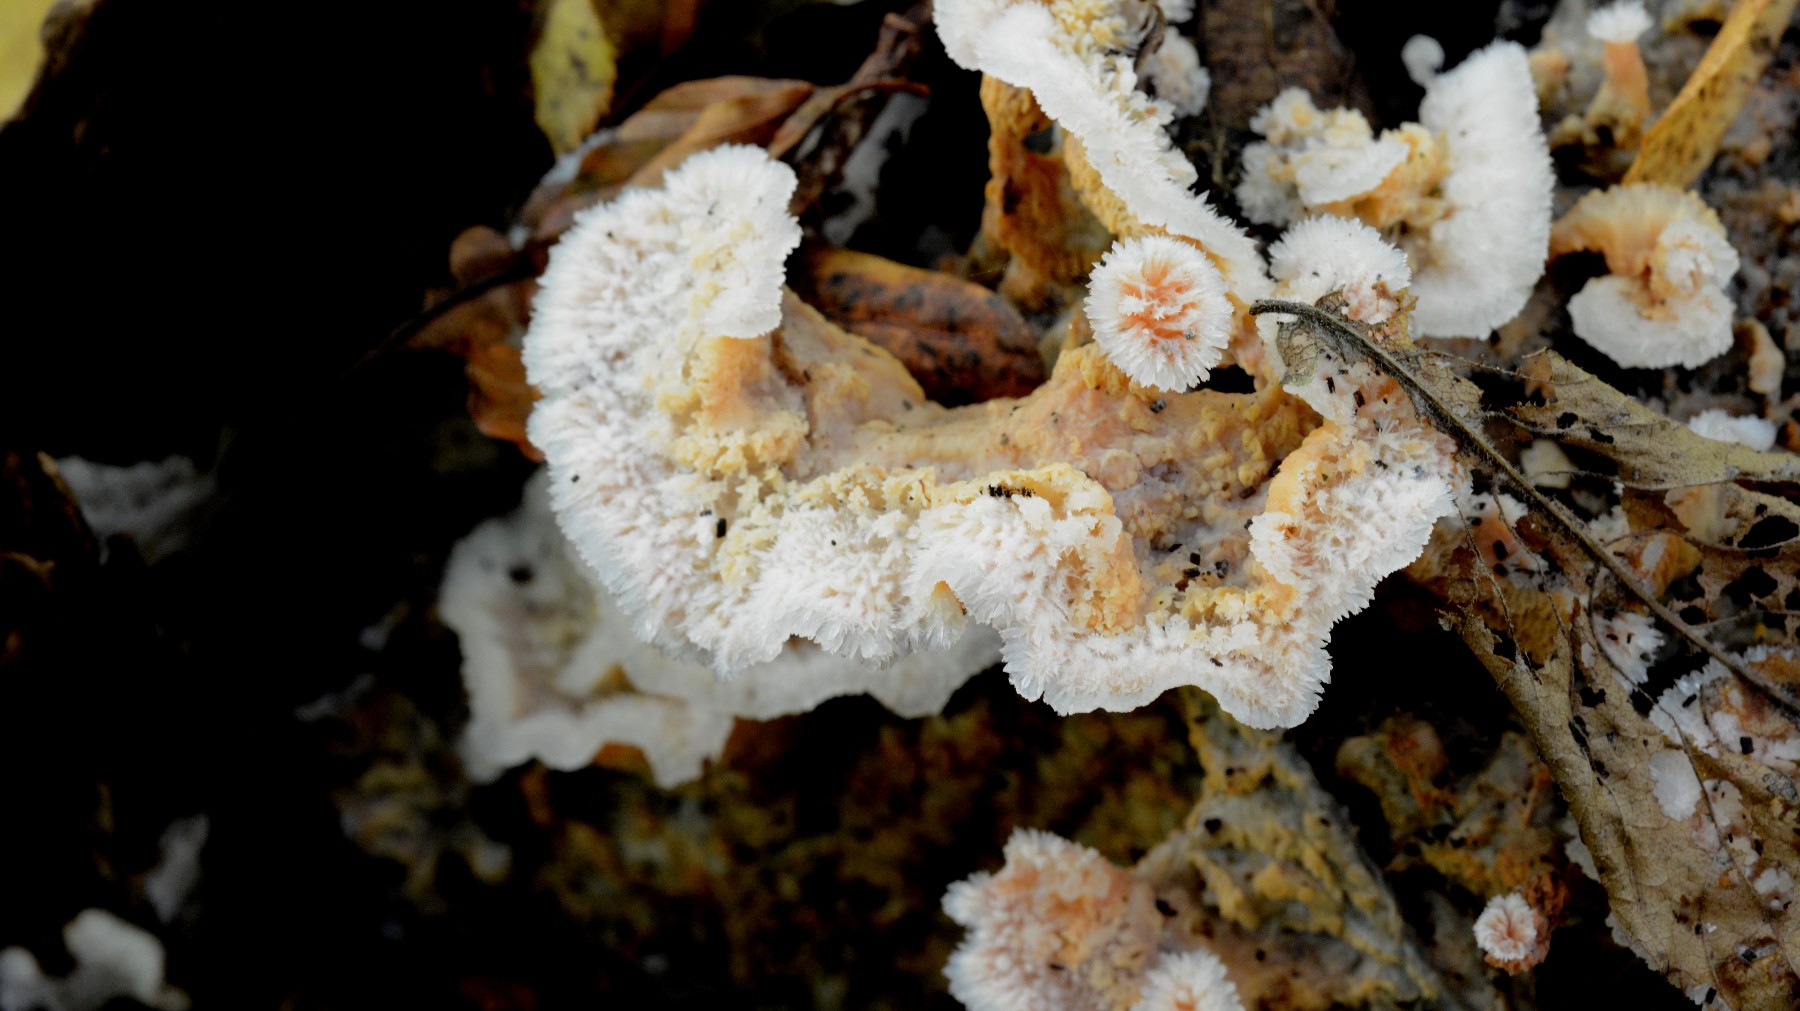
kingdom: Fungi
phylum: Basidiomycota
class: Agaricomycetes
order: Polyporales
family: Meruliaceae
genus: Phlebia
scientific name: Phlebia tremellosa
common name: bævrende åresvamp
